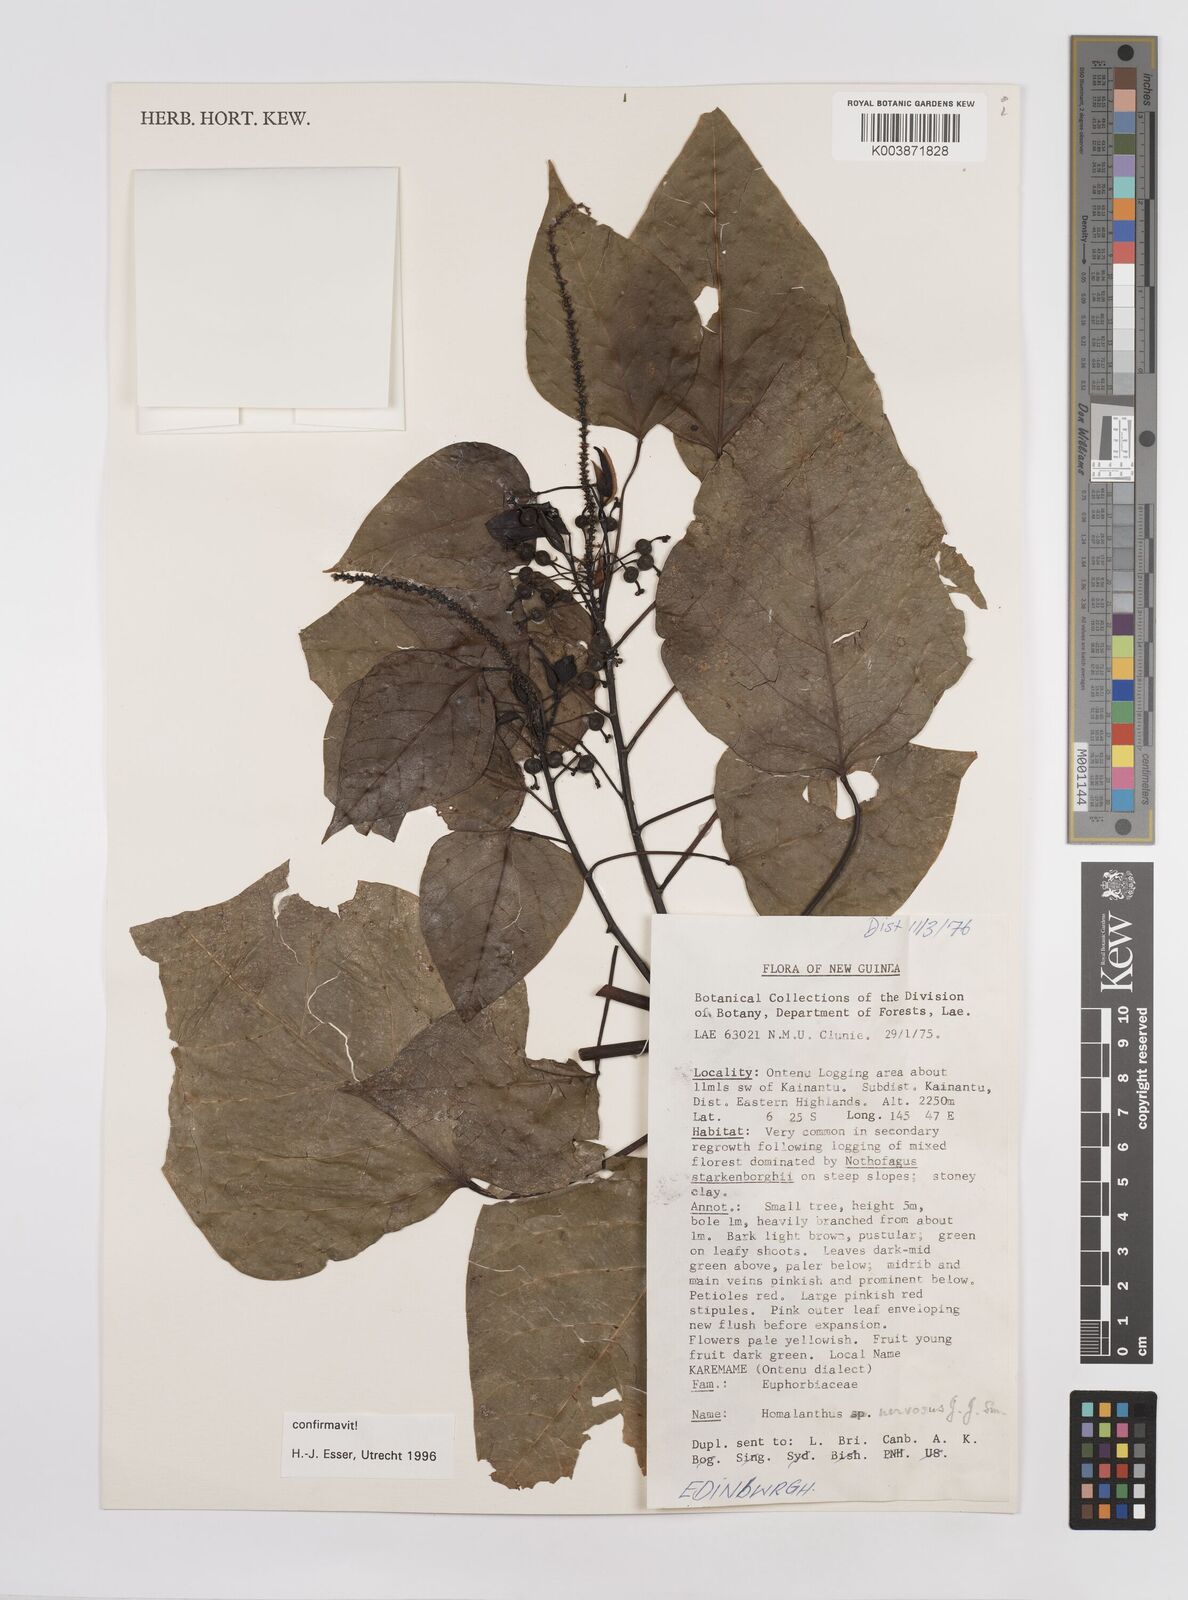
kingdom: Plantae
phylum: Tracheophyta
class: Magnoliopsida
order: Malpighiales
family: Euphorbiaceae
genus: Homalanthus
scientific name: Homalanthus nervosus
